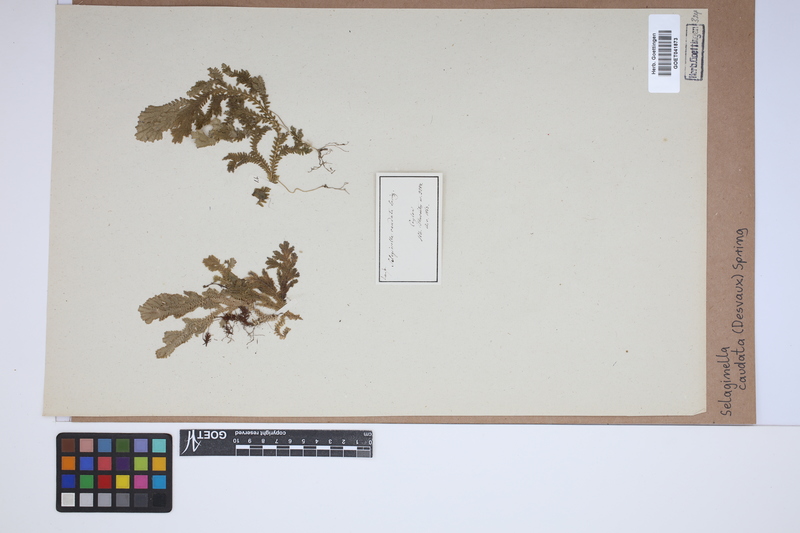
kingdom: Plantae
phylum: Tracheophyta
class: Lycopodiopsida
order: Selaginellales
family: Selaginellaceae
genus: Selaginella
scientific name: Selaginella caudata
